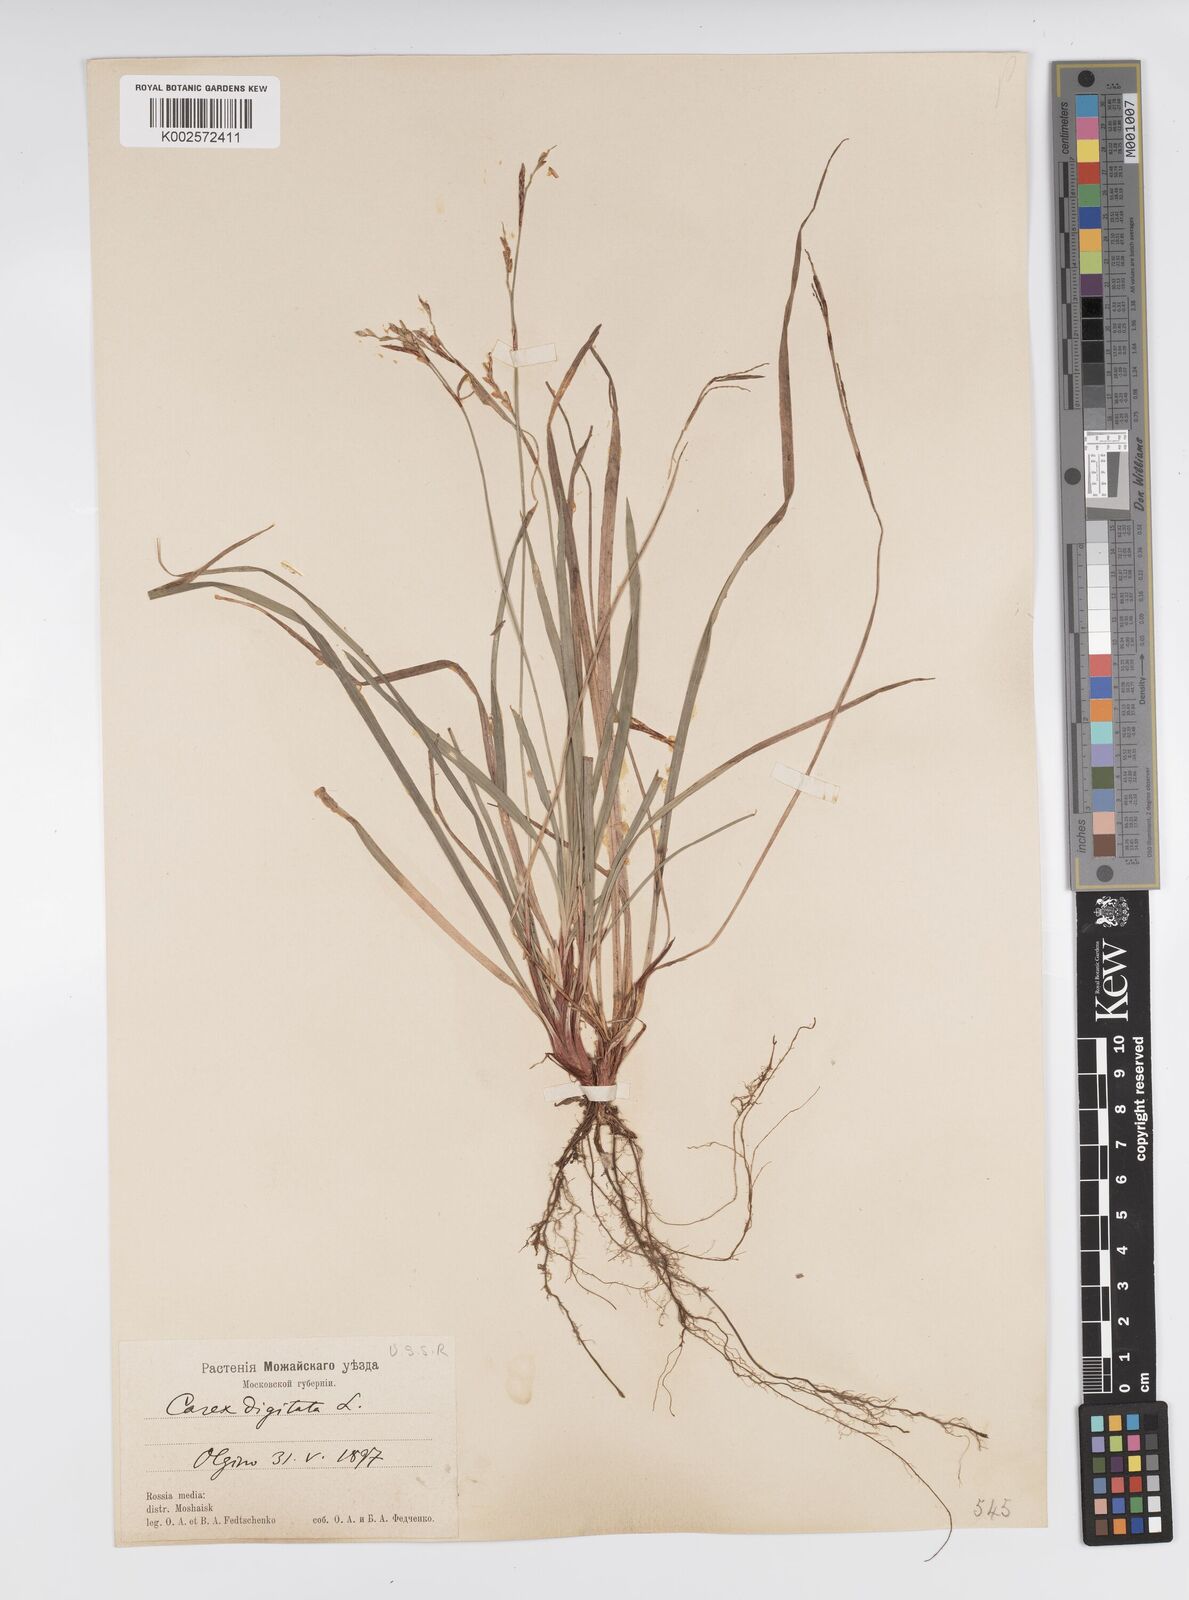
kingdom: Plantae
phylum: Tracheophyta
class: Liliopsida
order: Poales
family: Cyperaceae
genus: Carex
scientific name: Carex digitata
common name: Fingered sedge
